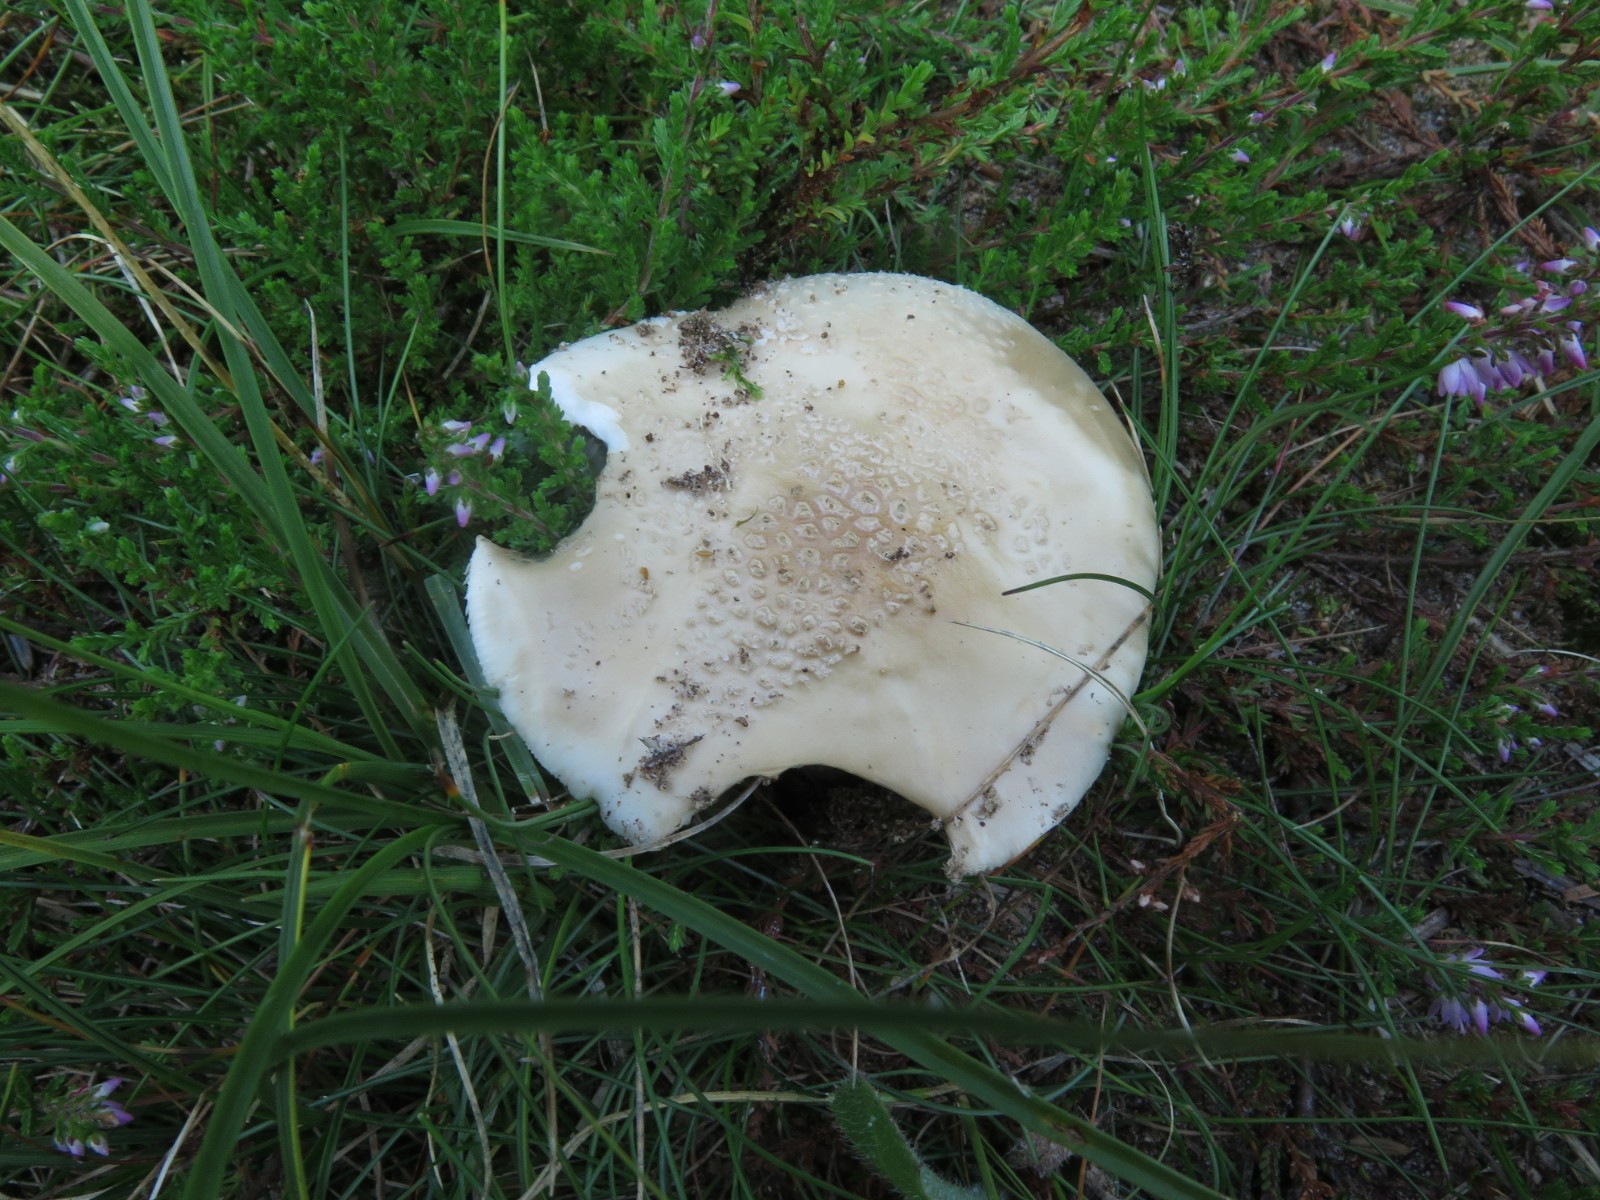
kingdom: Fungi
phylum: Basidiomycota
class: Agaricomycetes
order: Agaricales
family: Amanitaceae
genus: Amanita
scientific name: Amanita
